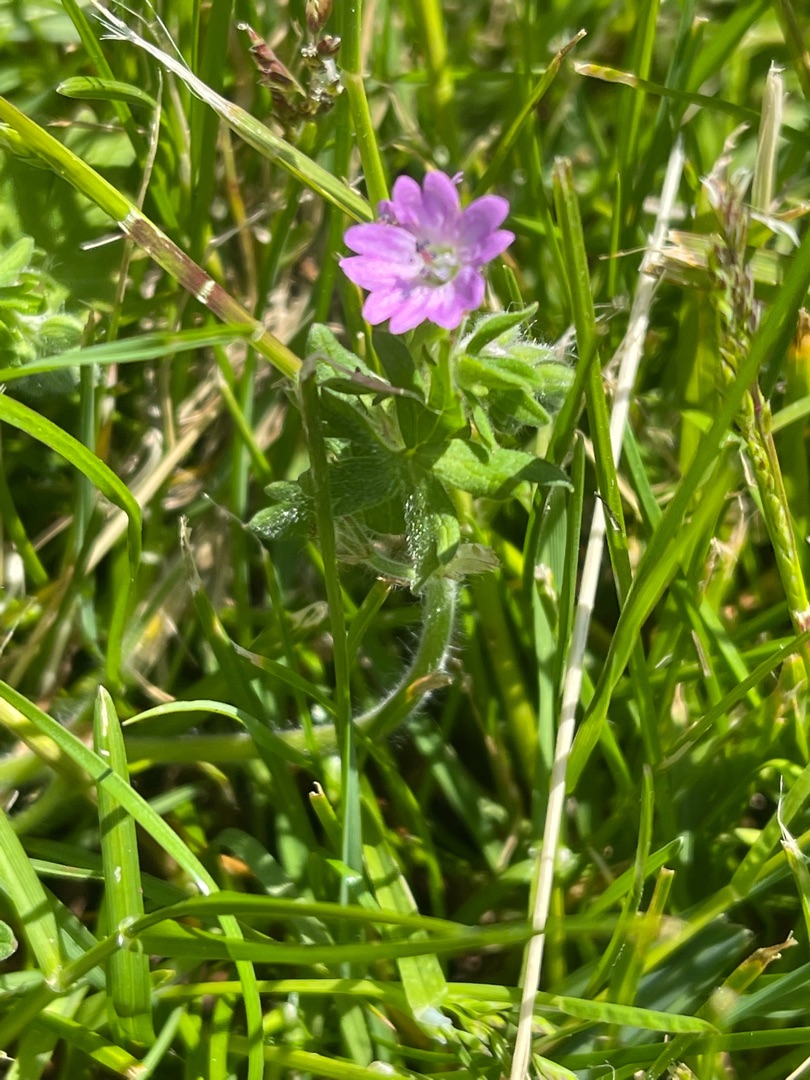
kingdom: Plantae
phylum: Tracheophyta
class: Magnoliopsida
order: Geraniales
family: Geraniaceae
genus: Geranium
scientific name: Geranium molle
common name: Blød storkenæb
